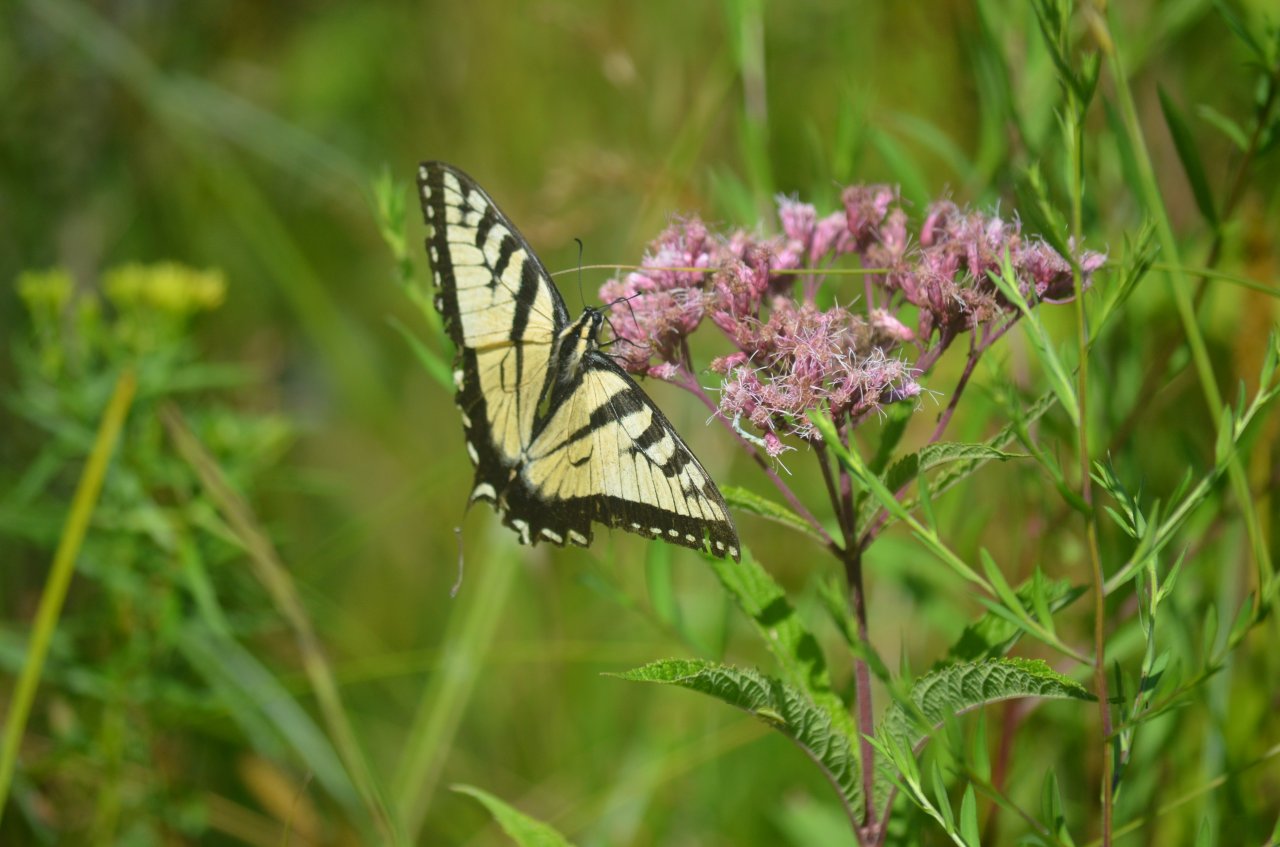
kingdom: Animalia
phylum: Arthropoda
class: Insecta
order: Lepidoptera
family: Papilionidae
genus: Pterourus
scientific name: Pterourus glaucus
